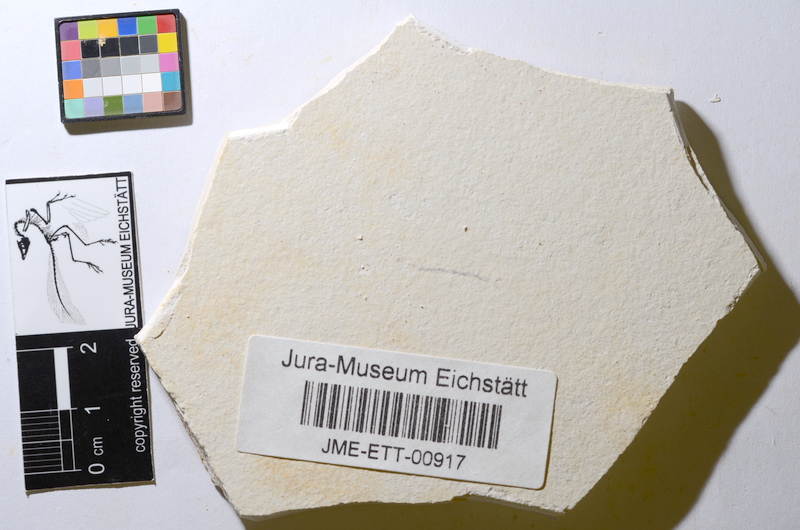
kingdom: Animalia
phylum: Chordata
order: Salmoniformes
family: Orthogonikleithridae
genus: Orthogonikleithrus
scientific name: Orthogonikleithrus hoelli
